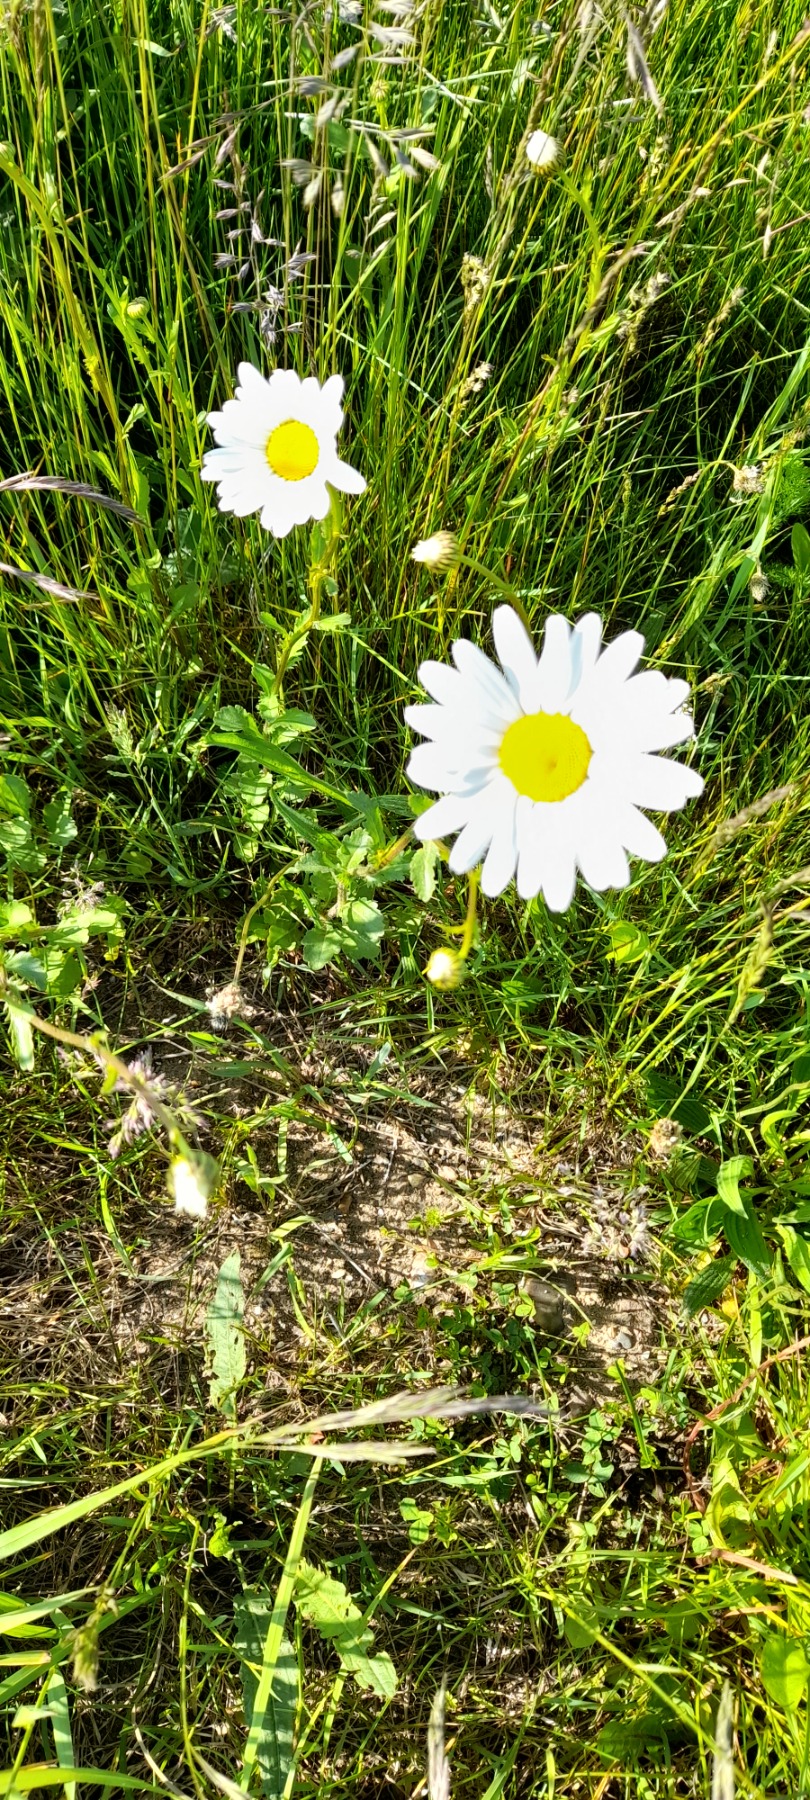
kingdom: Plantae
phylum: Tracheophyta
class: Magnoliopsida
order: Asterales
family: Asteraceae
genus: Leucanthemum
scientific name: Leucanthemum vulgare
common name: Hvid okseøje
